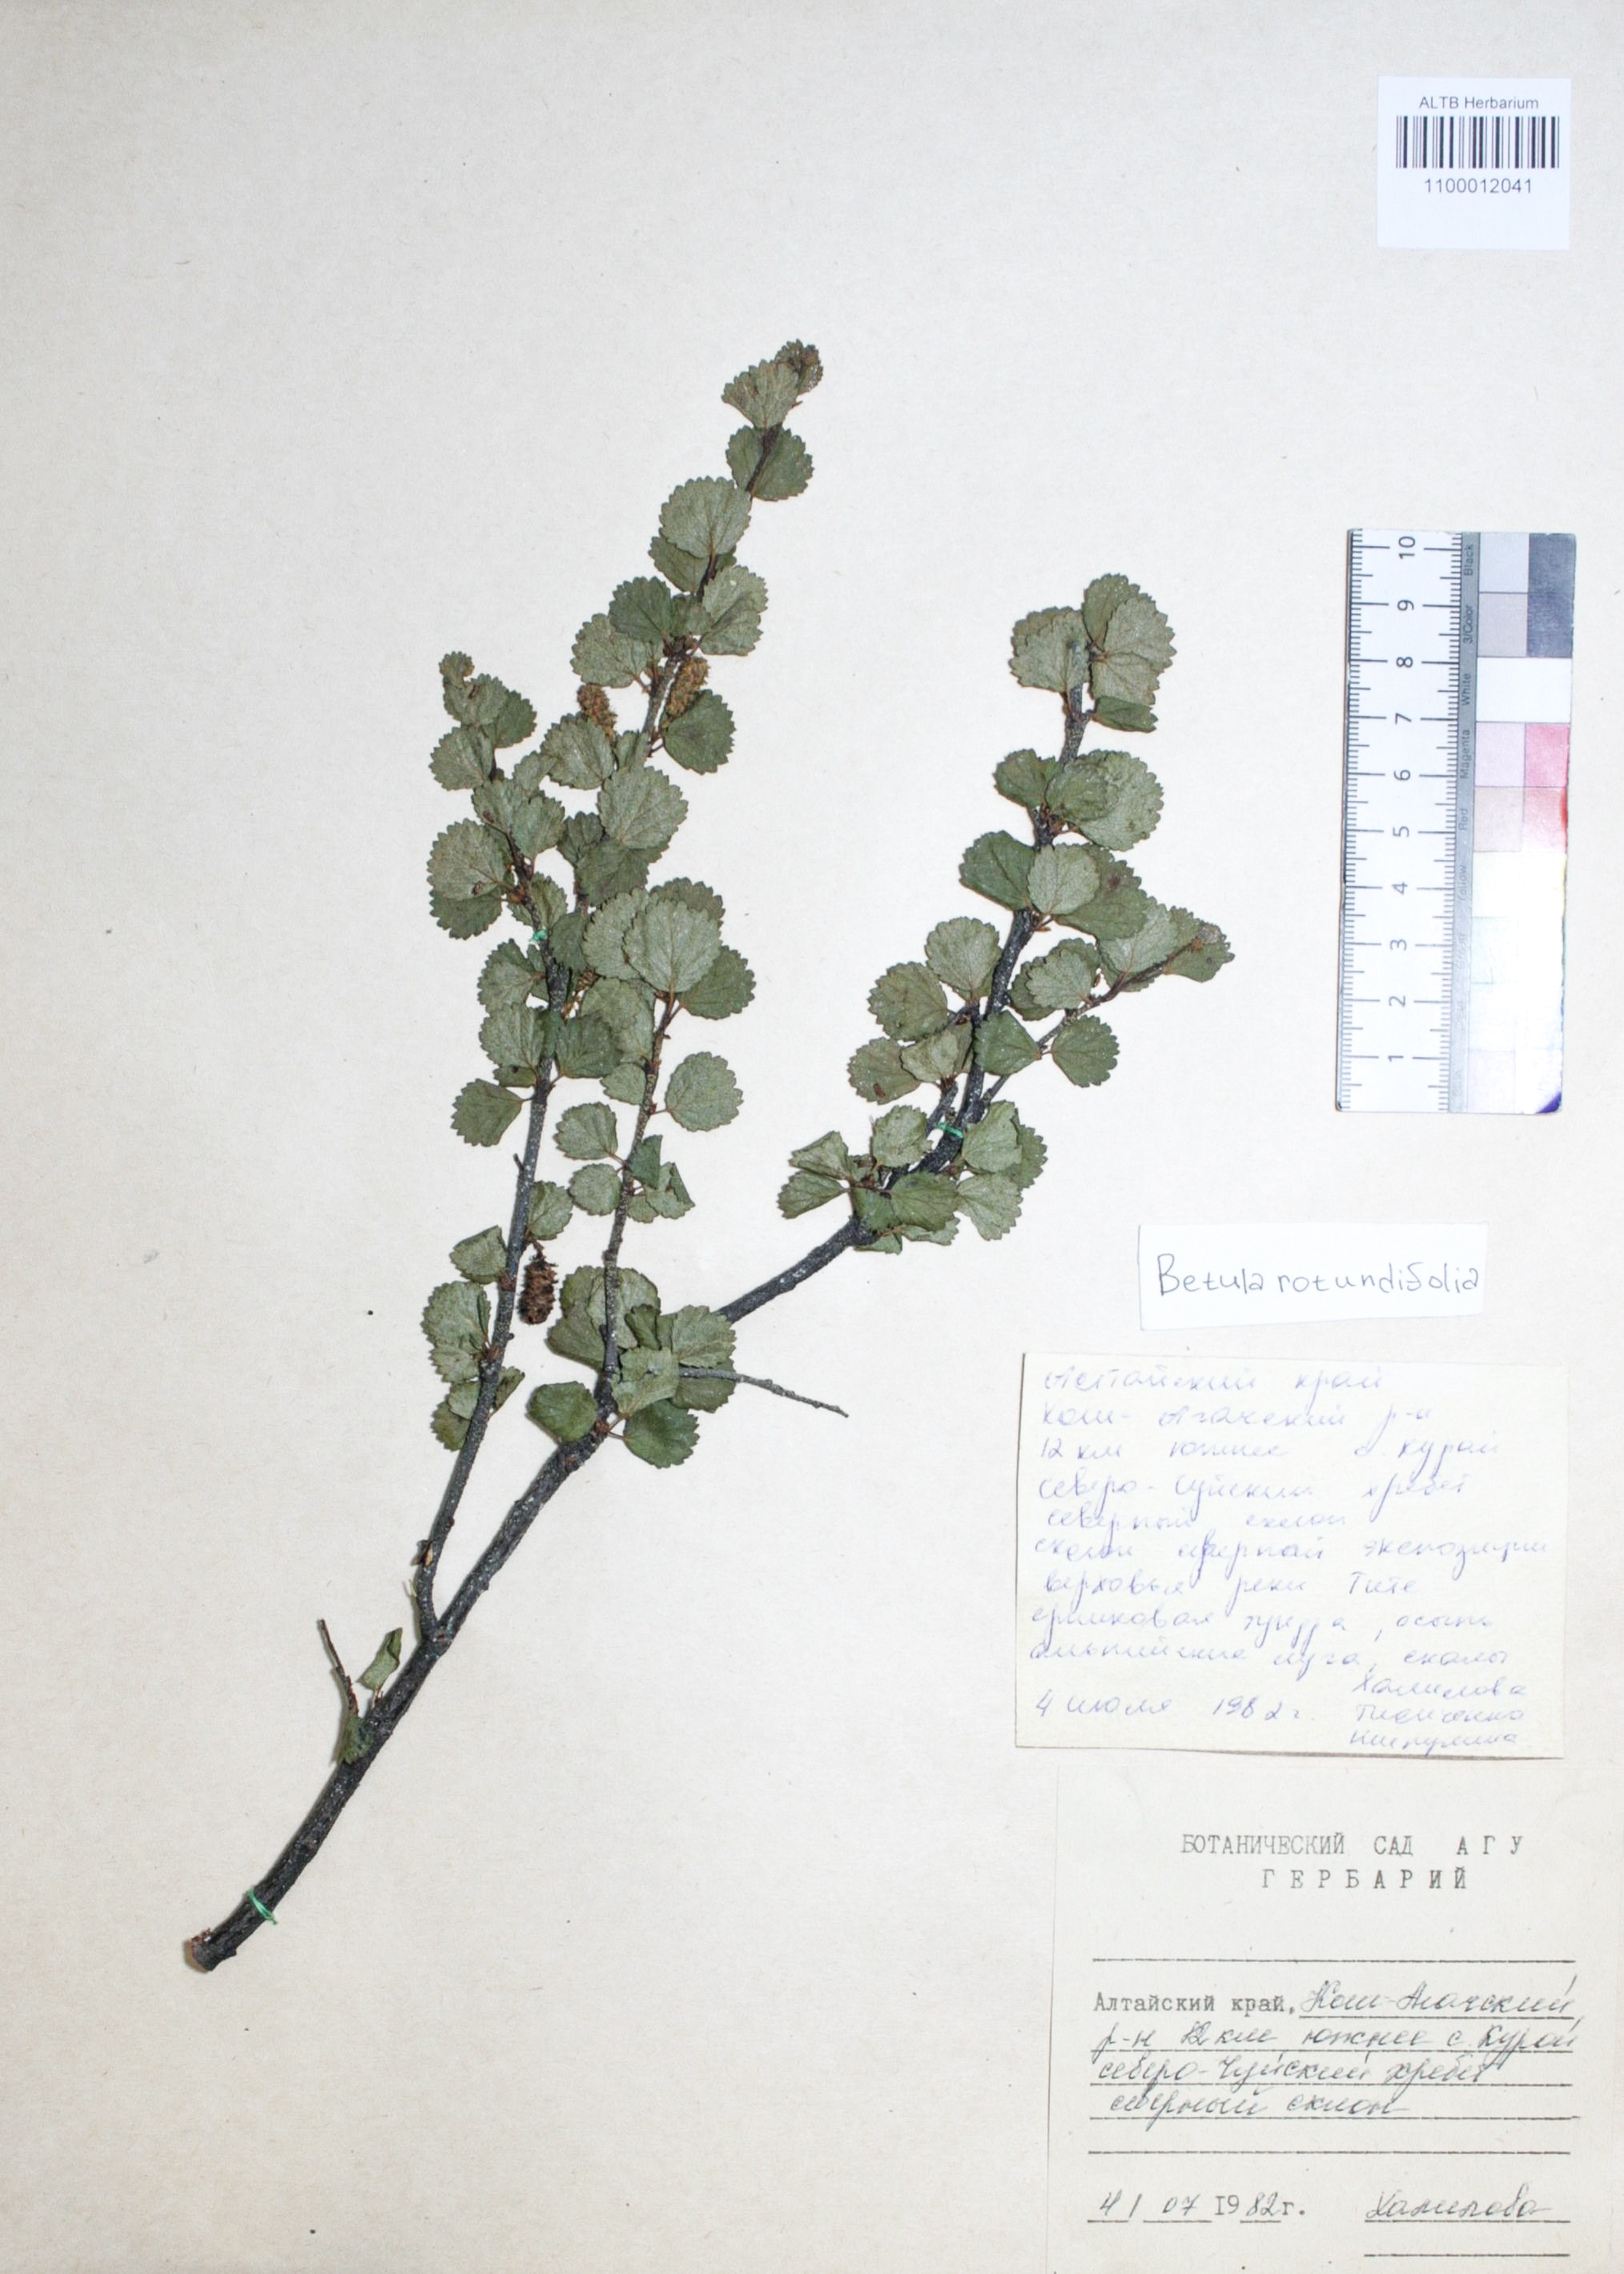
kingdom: Plantae
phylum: Tracheophyta
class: Magnoliopsida
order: Fagales
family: Betulaceae
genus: Betula
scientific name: Betula glandulosa
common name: Dwarf birch
